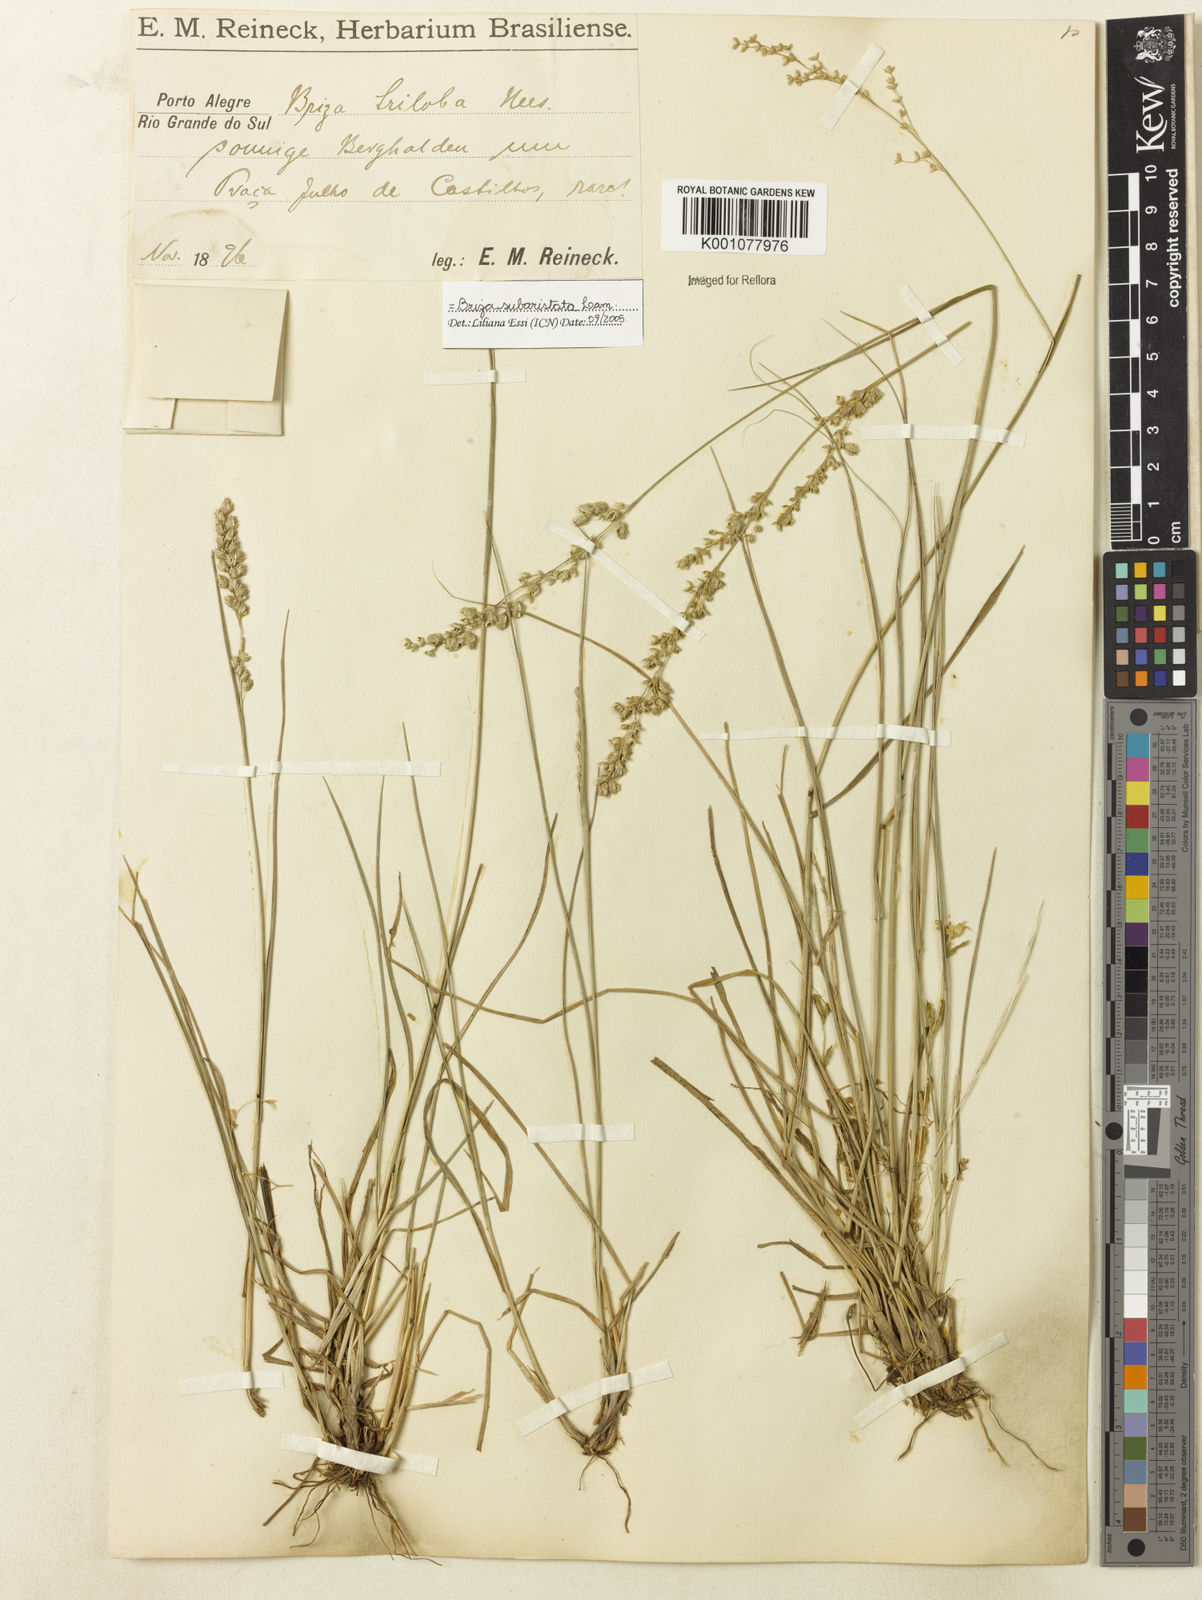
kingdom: Plantae
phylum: Tracheophyta
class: Liliopsida
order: Poales
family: Poaceae
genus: Briza
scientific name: Briza
